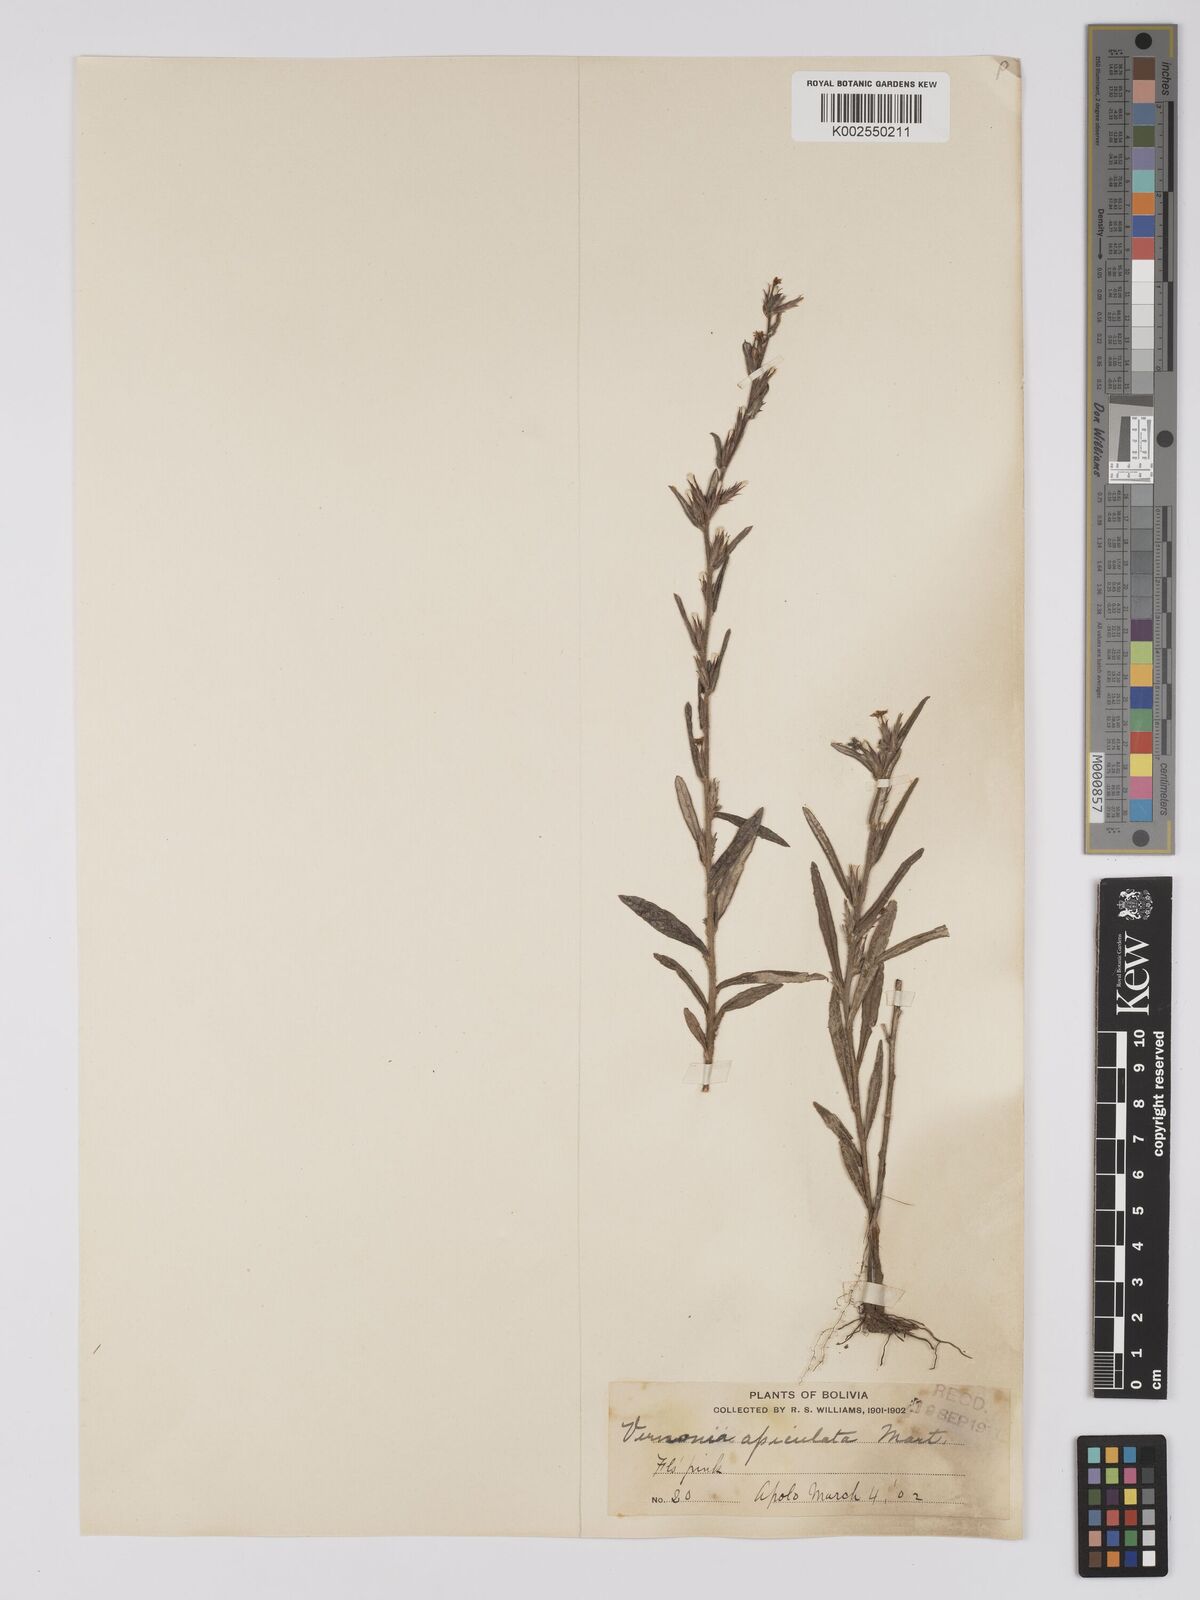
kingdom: Plantae
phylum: Tracheophyta
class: Magnoliopsida
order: Asterales
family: Asteraceae
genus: Stenocephalum
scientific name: Stenocephalum apiculatum
